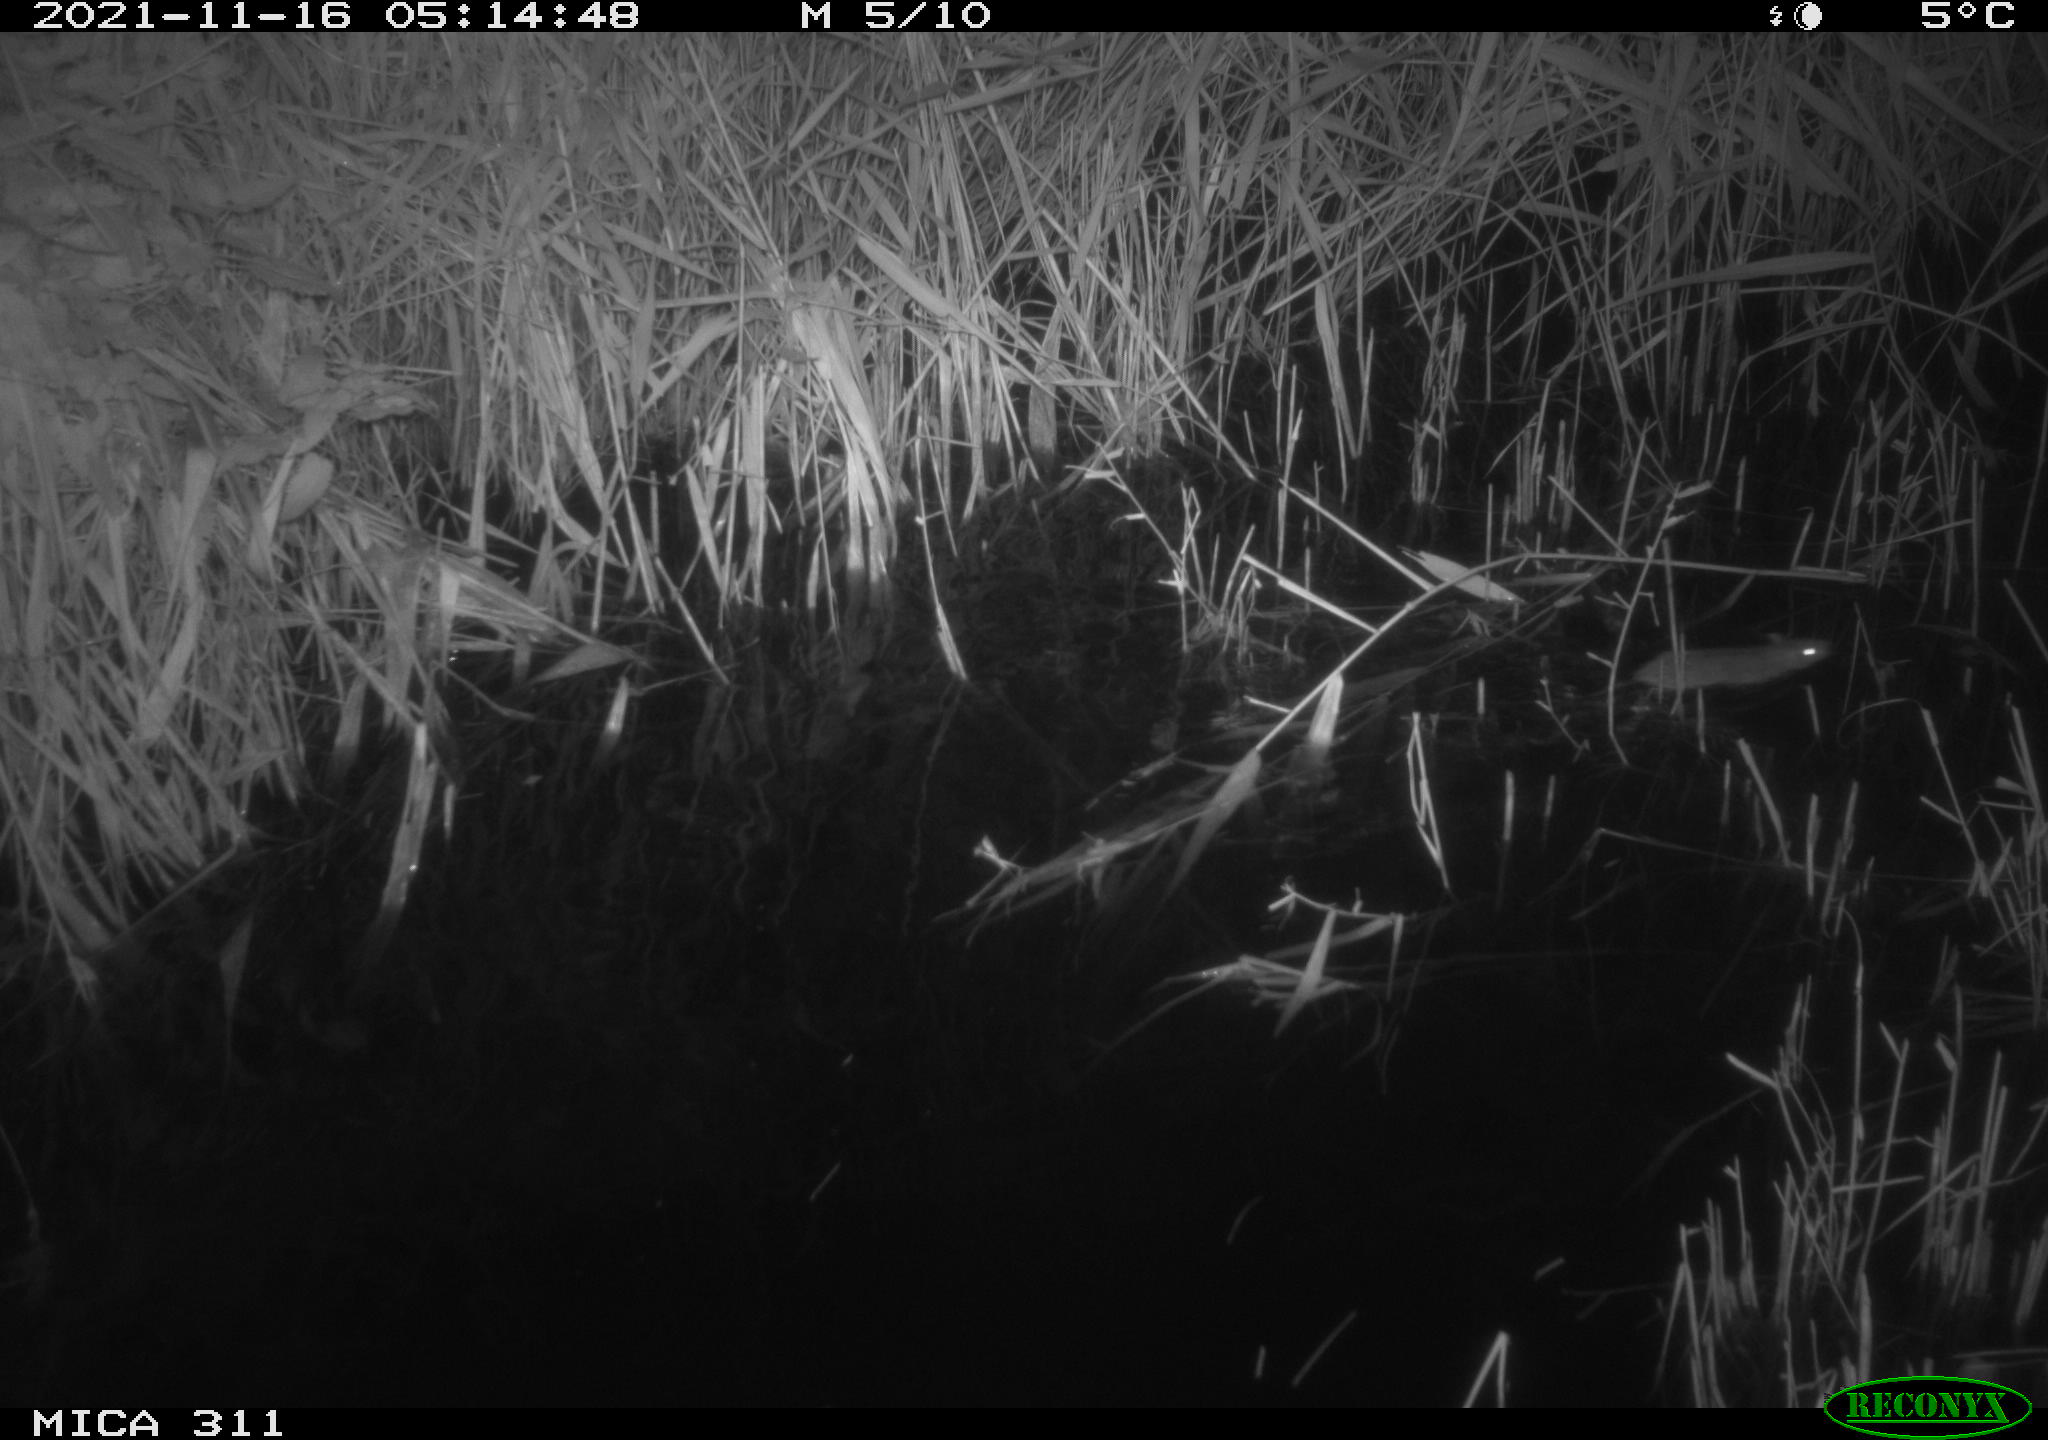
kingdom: Animalia
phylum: Chordata
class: Mammalia
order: Rodentia
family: Muridae
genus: Rattus
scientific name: Rattus norvegicus
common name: Brown rat
